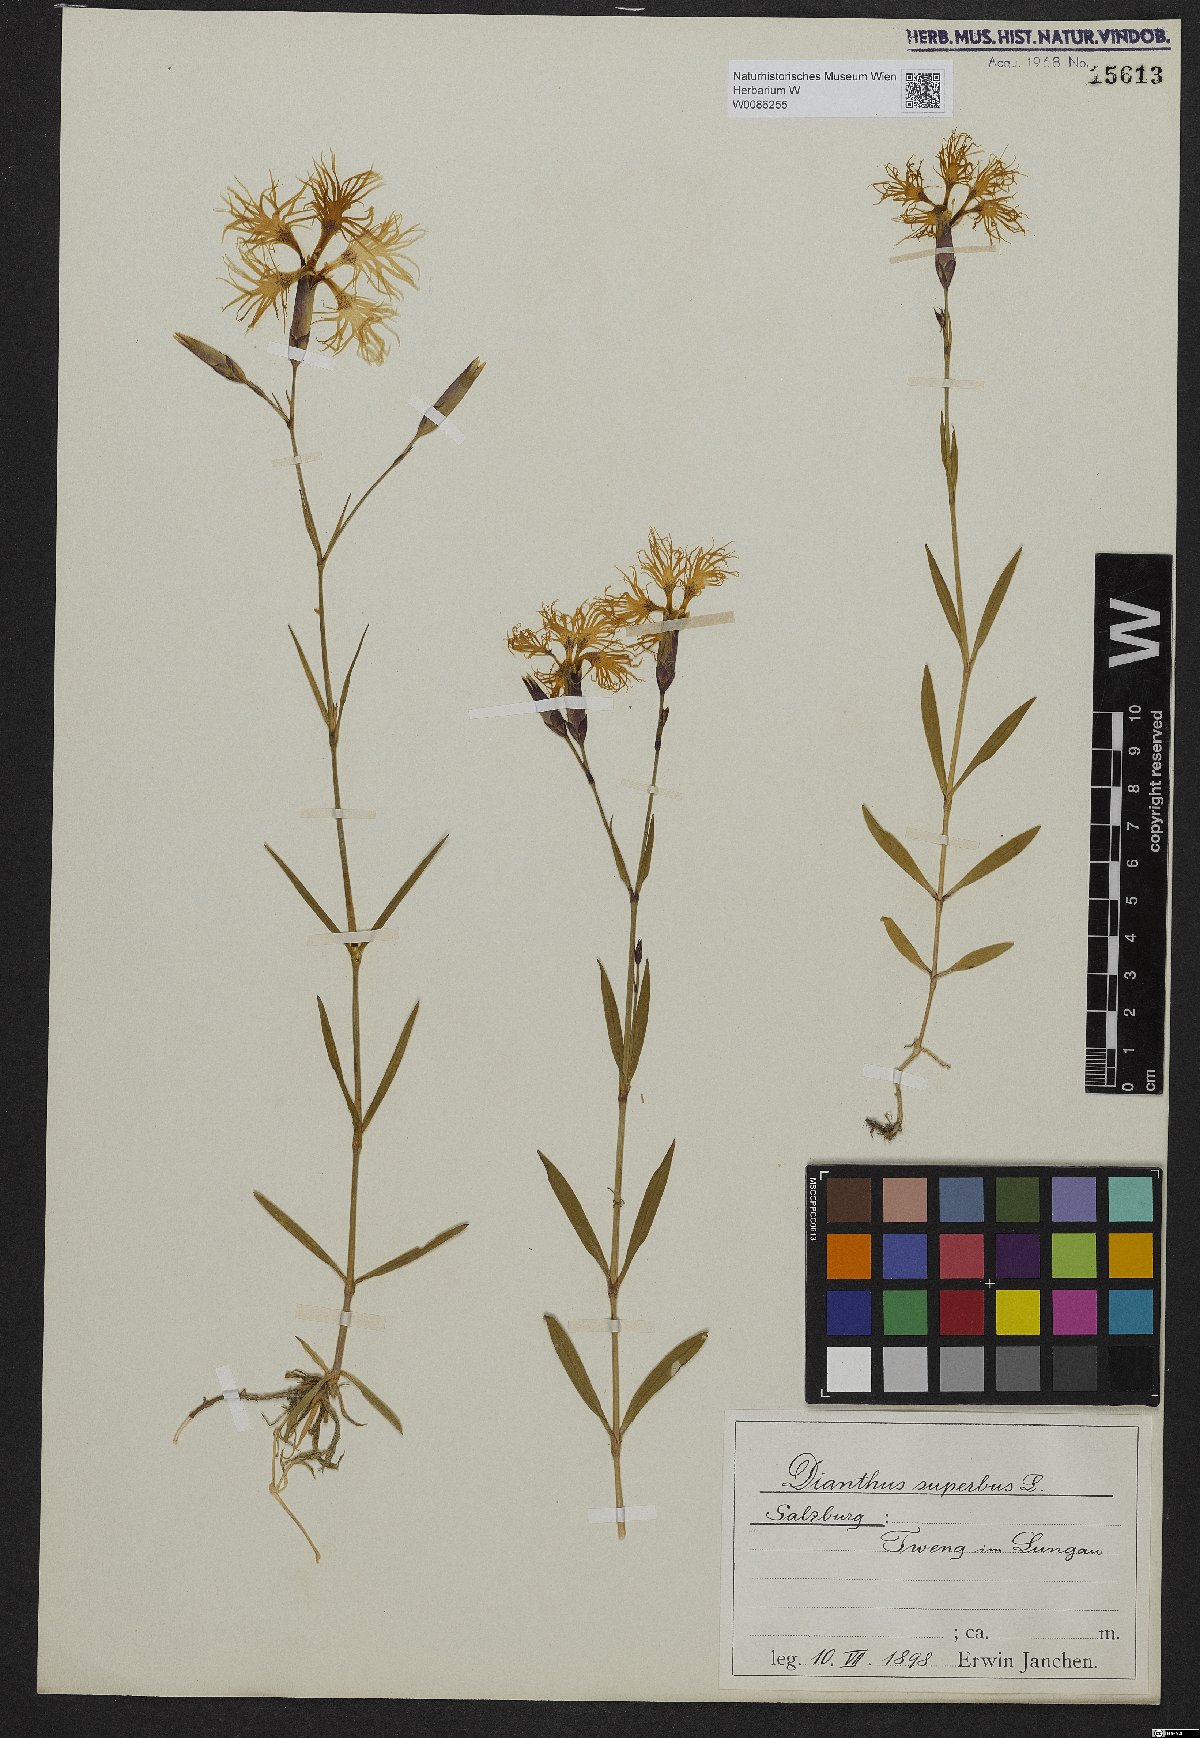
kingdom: Plantae
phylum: Tracheophyta
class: Magnoliopsida
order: Caryophyllales
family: Caryophyllaceae
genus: Dianthus
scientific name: Dianthus superbus
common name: Fringed pink
